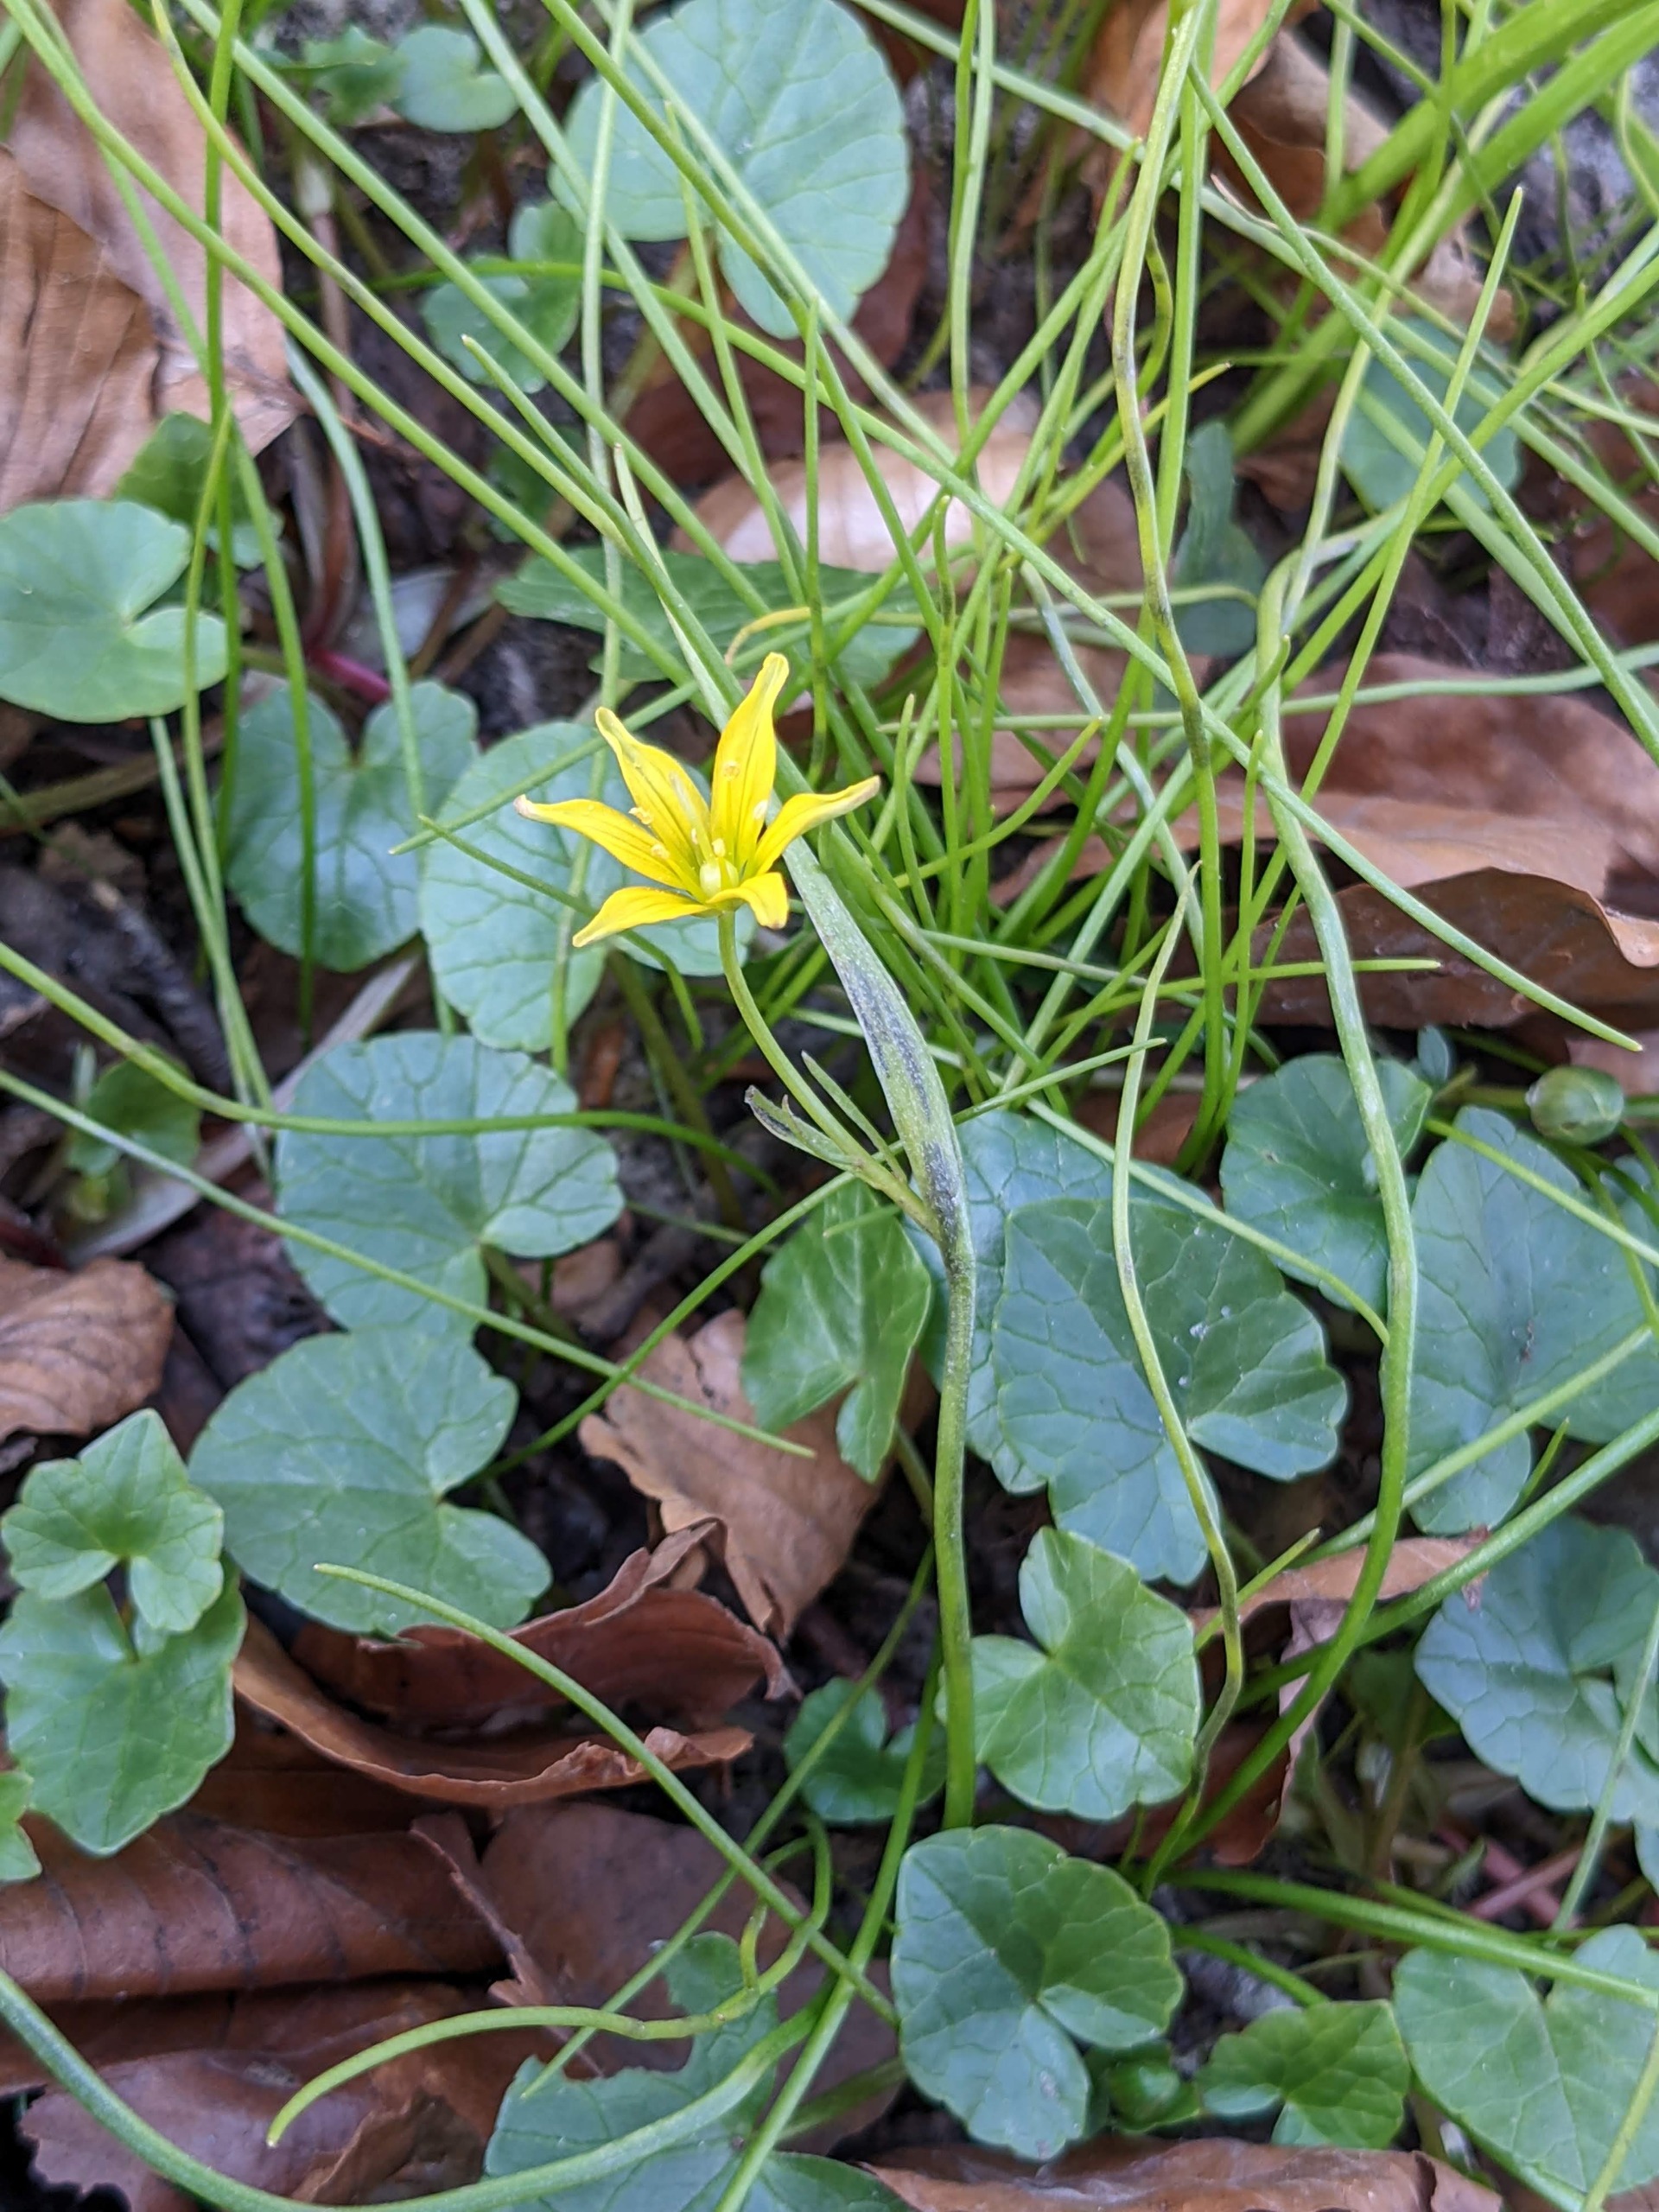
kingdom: Plantae
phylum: Tracheophyta
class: Liliopsida
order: Liliales
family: Liliaceae
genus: Gagea
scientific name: Gagea spathacea
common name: Hylster-guldstjerne
